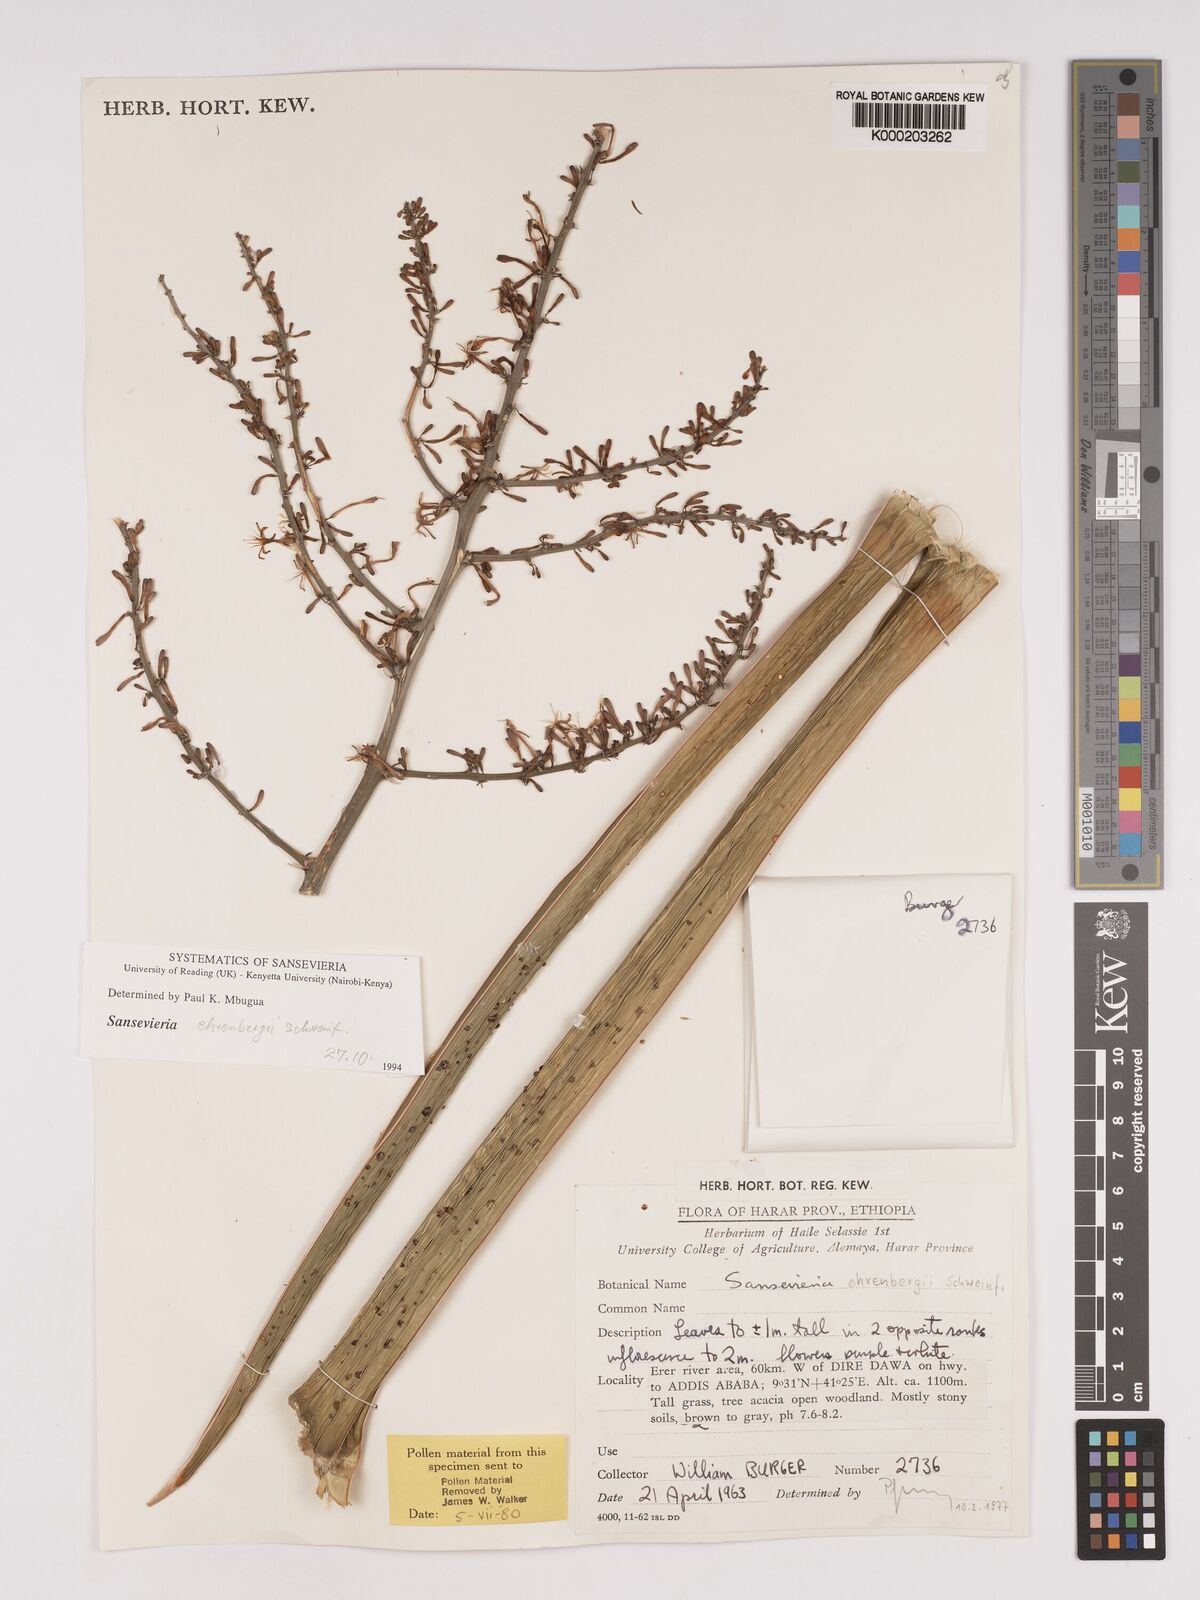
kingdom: Plantae
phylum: Tracheophyta
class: Liliopsida
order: Asparagales
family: Asparagaceae
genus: Dracaena
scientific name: Dracaena hanningtonii
